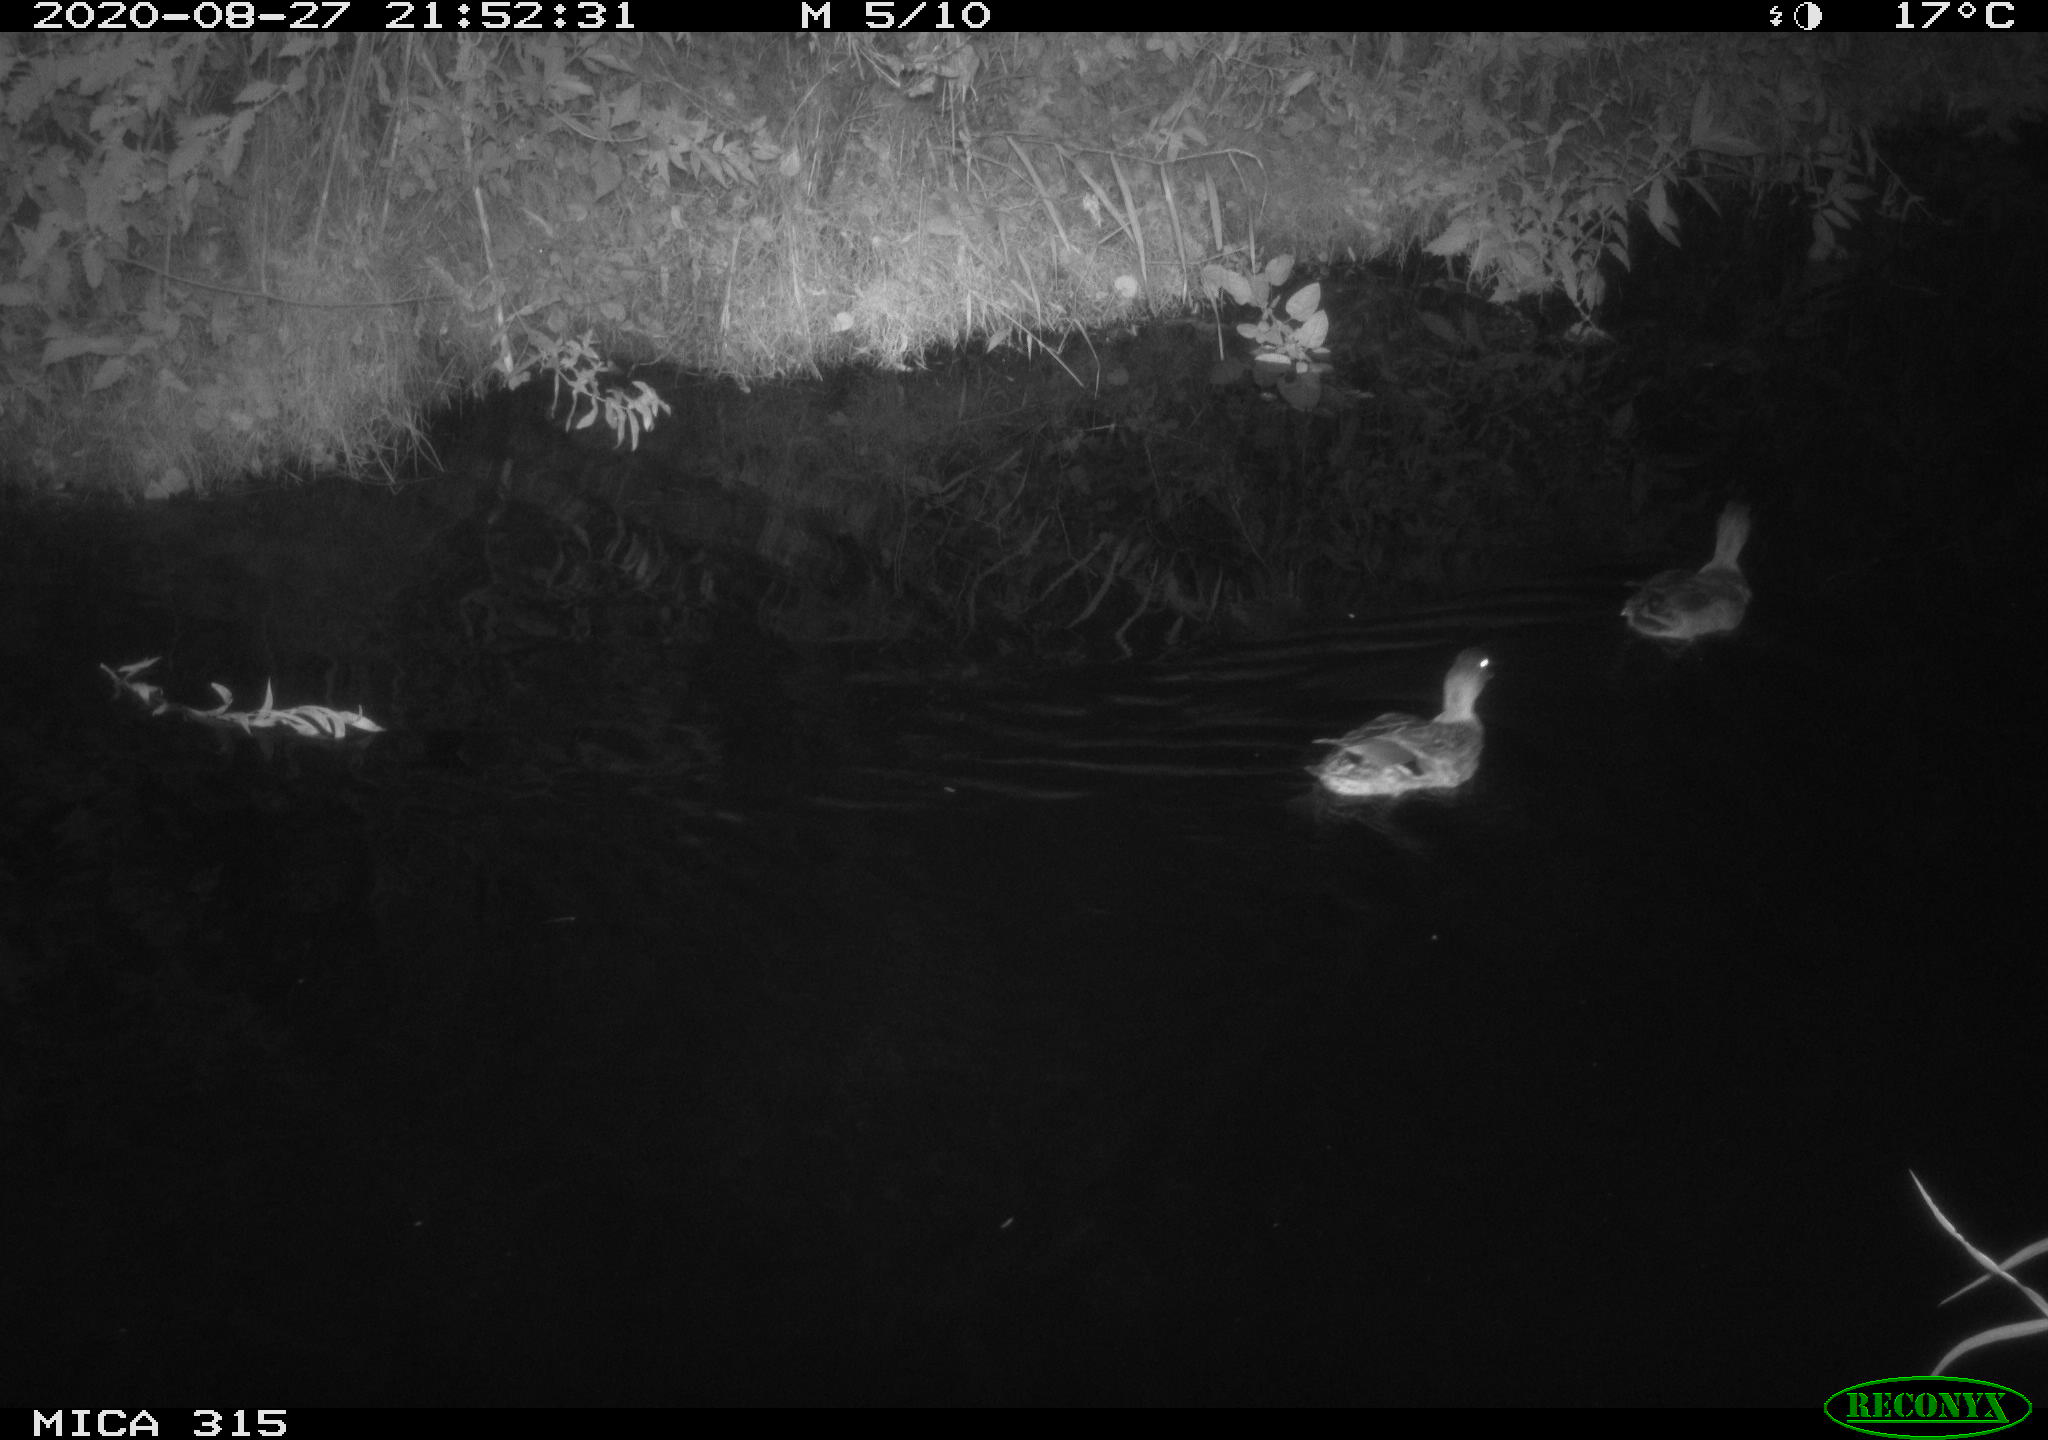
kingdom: Animalia
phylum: Chordata
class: Aves
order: Anseriformes
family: Anatidae
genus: Anas
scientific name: Anas platyrhynchos
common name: Mallard
